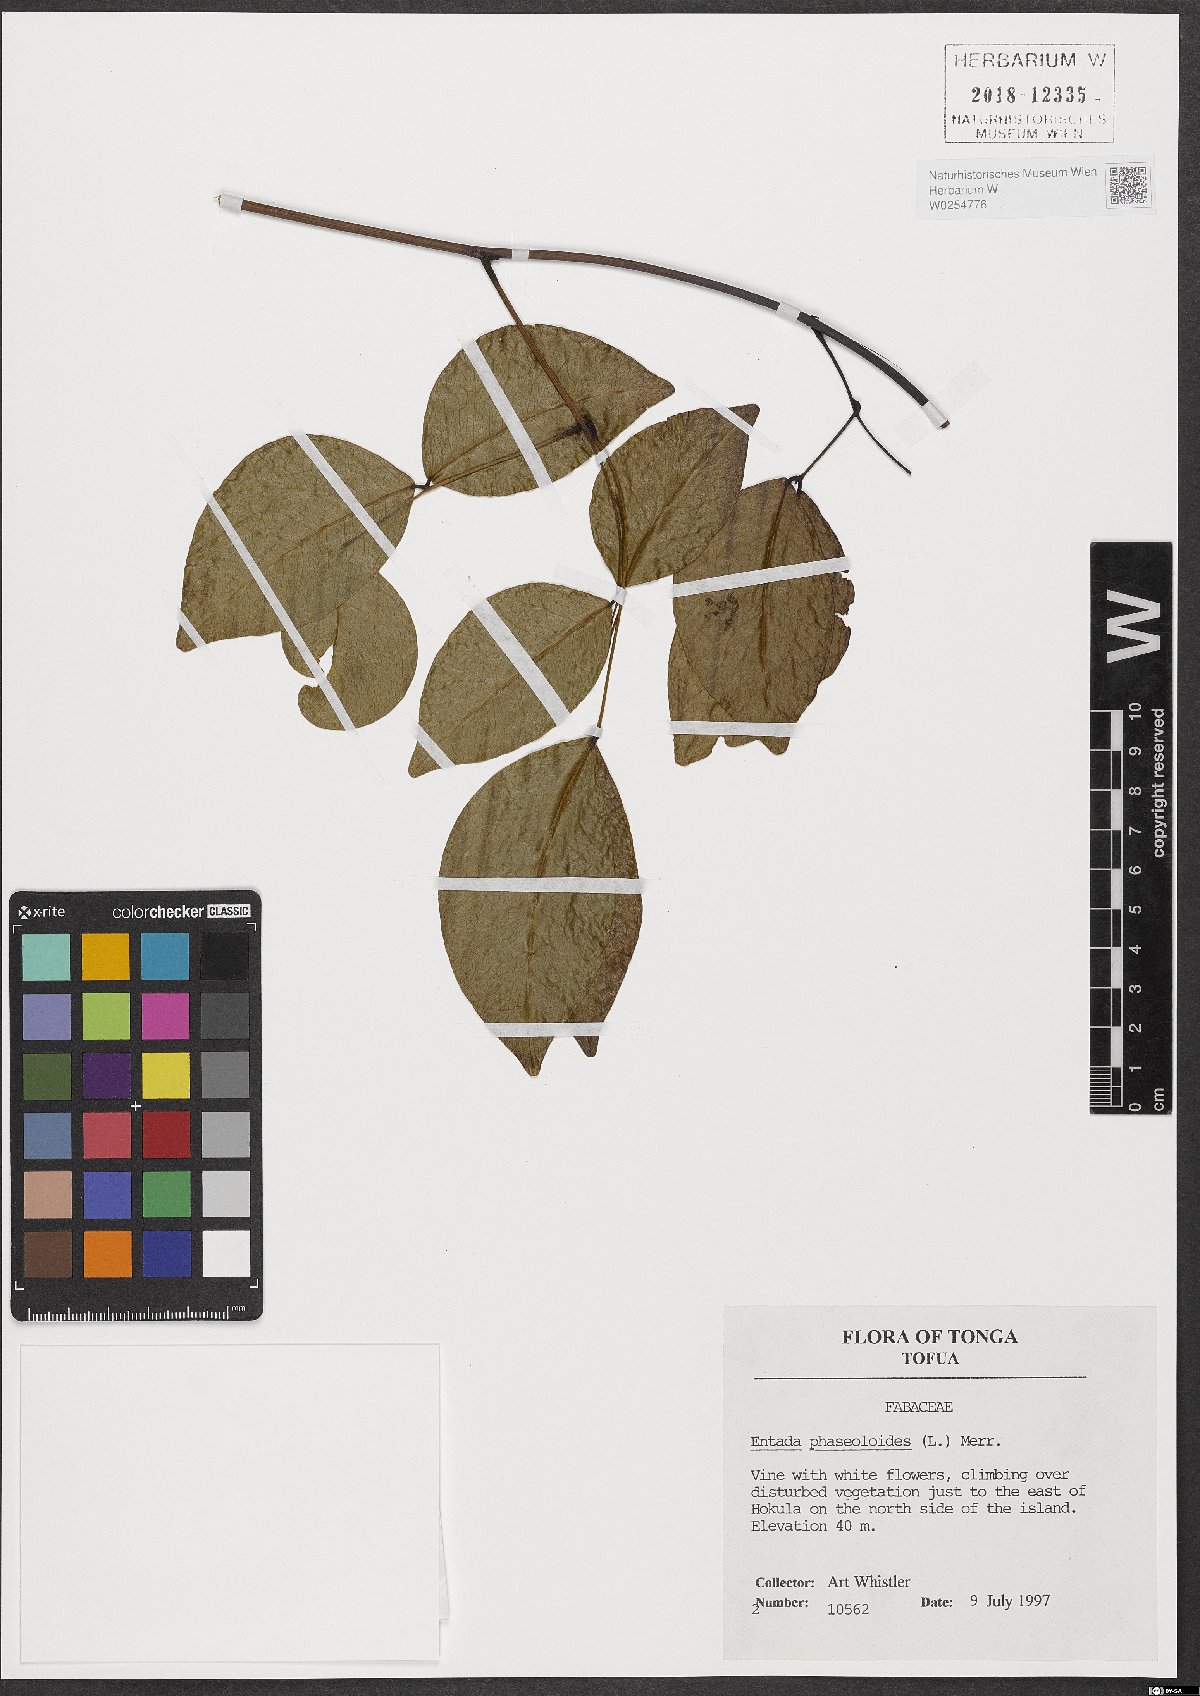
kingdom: Plantae
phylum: Tracheophyta
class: Magnoliopsida
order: Fabales
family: Fabaceae
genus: Entada
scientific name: Entada phaseoloides
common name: Matchbox-bean
